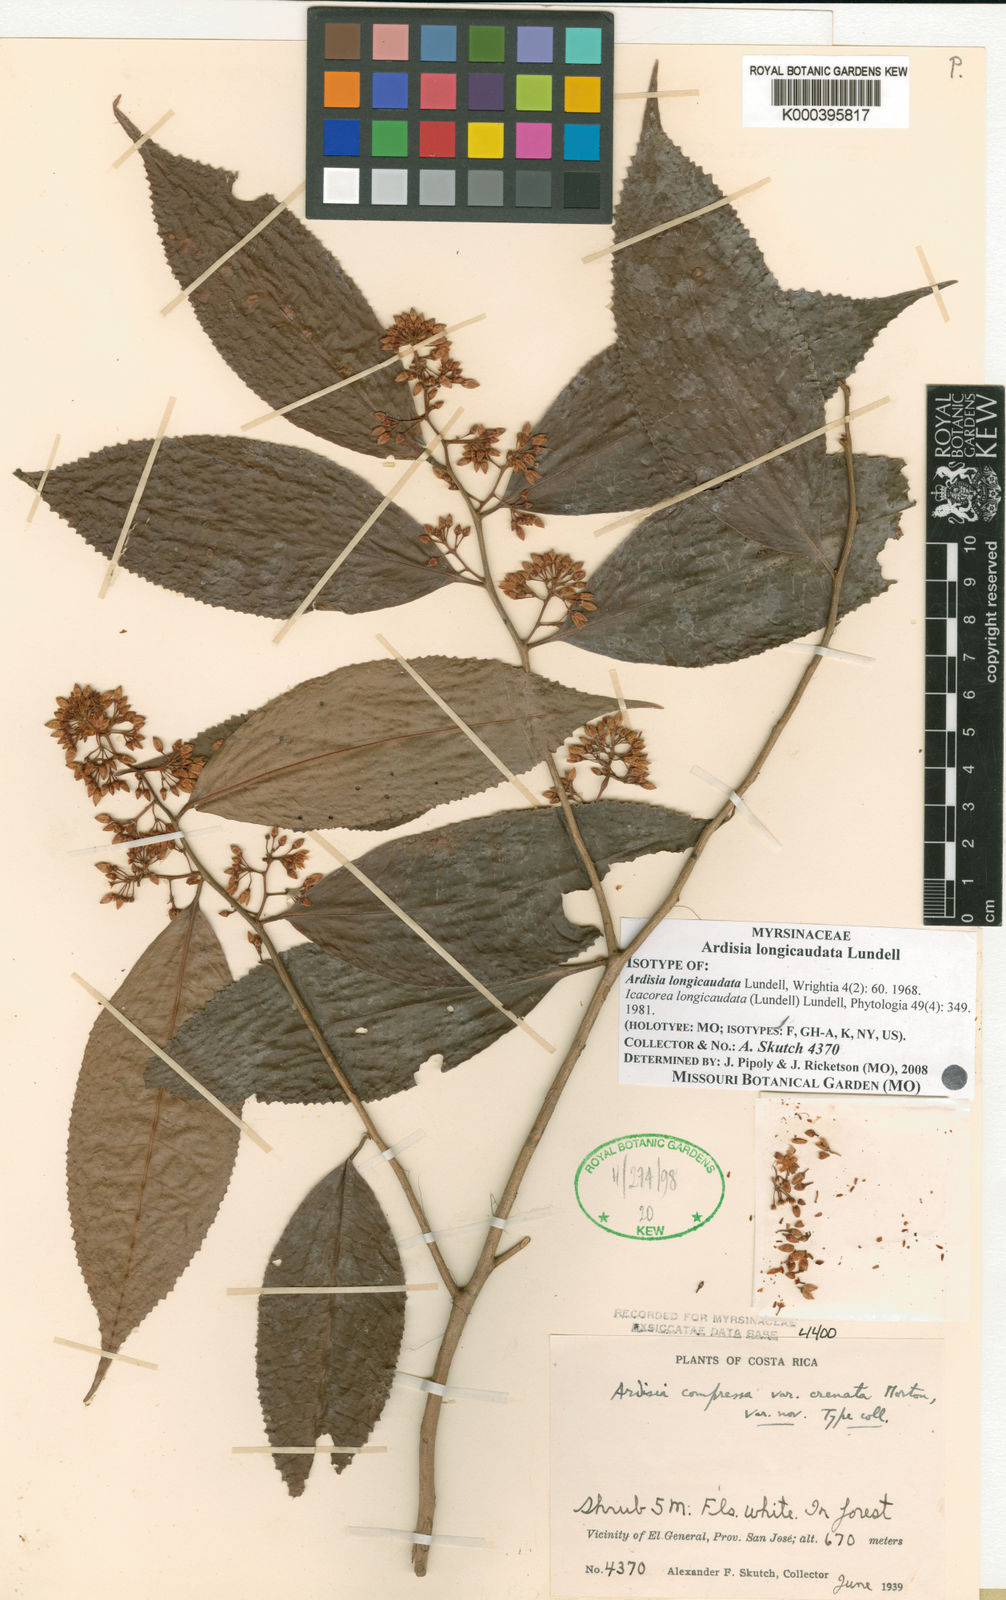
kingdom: Plantae
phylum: Tracheophyta
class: Magnoliopsida
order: Ericales
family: Primulaceae
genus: Ardisia
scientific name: Ardisia longicaudata
